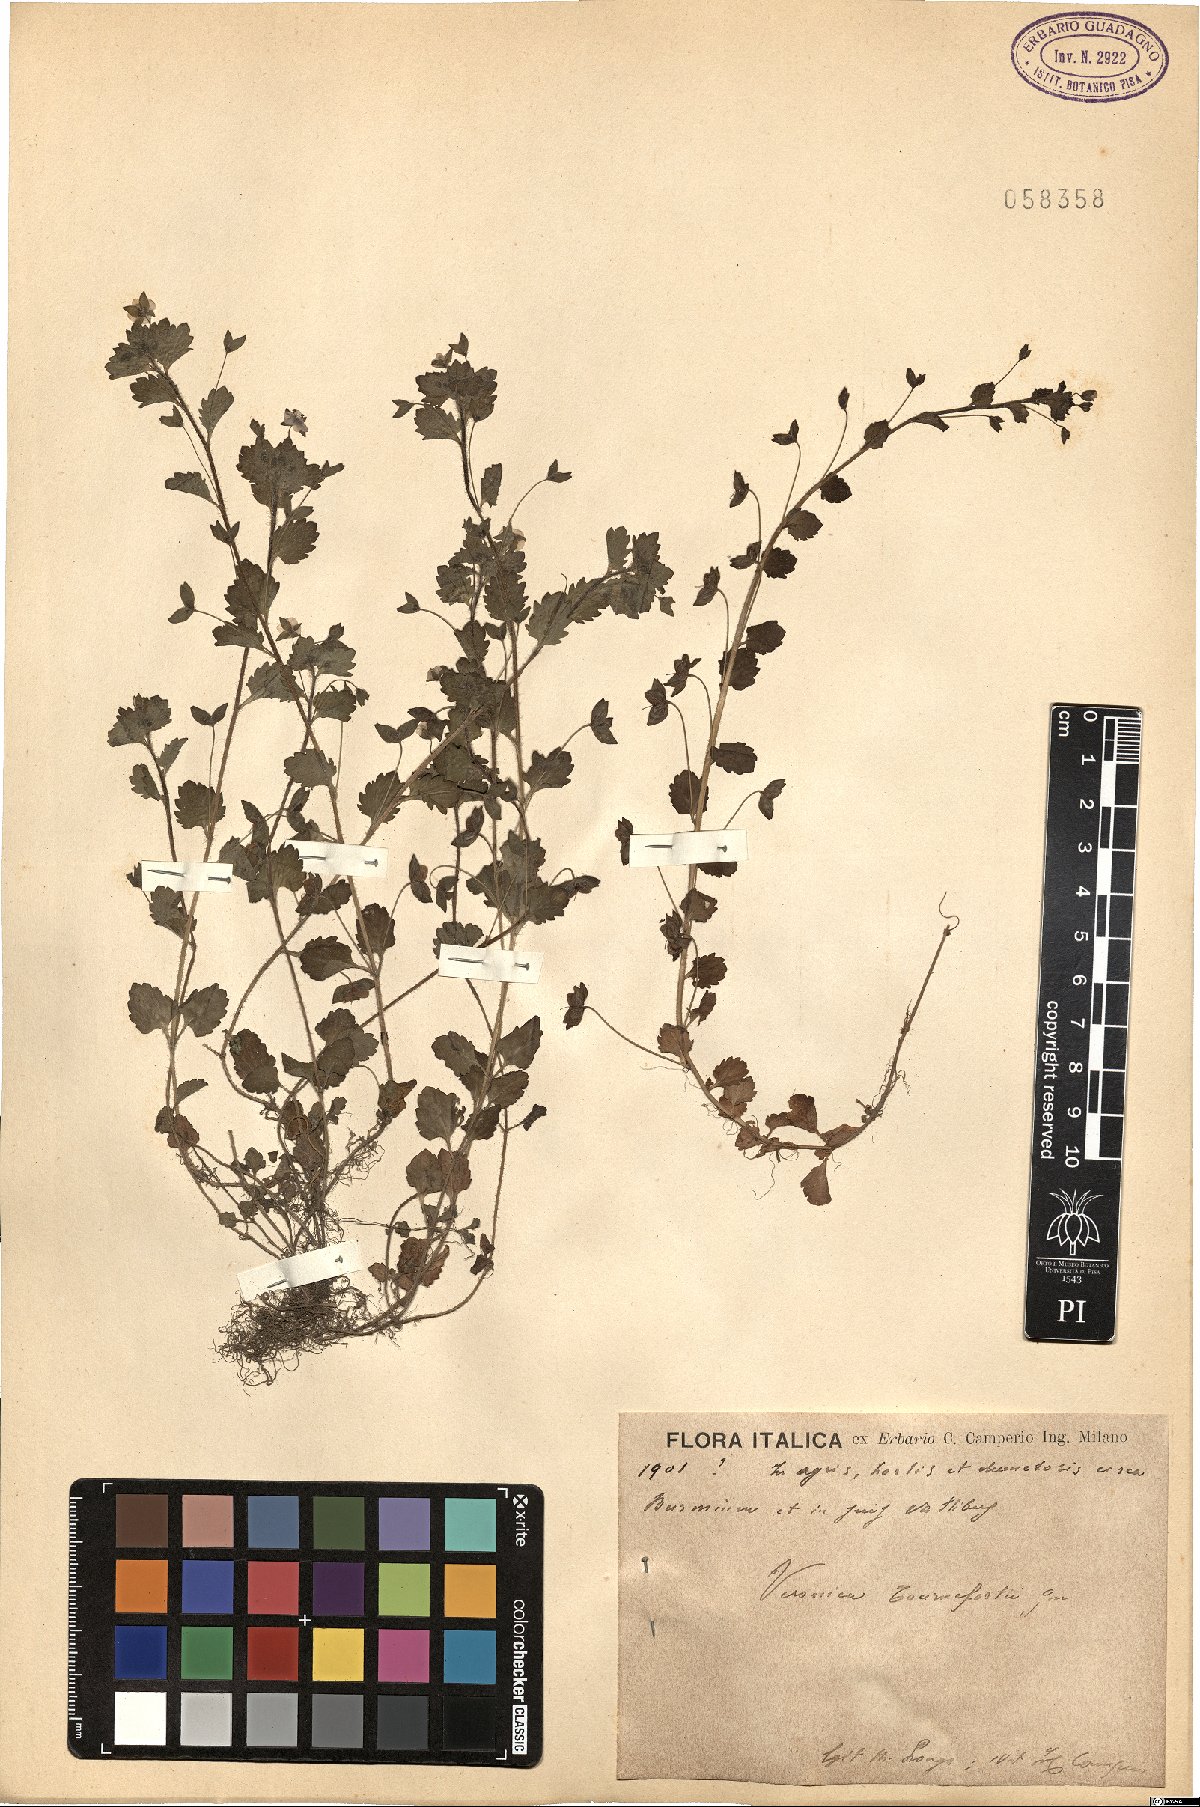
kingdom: Plantae
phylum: Tracheophyta
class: Magnoliopsida
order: Lamiales
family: Plantaginaceae
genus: Veronica
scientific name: Veronica persica
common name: Common field-speedwell
